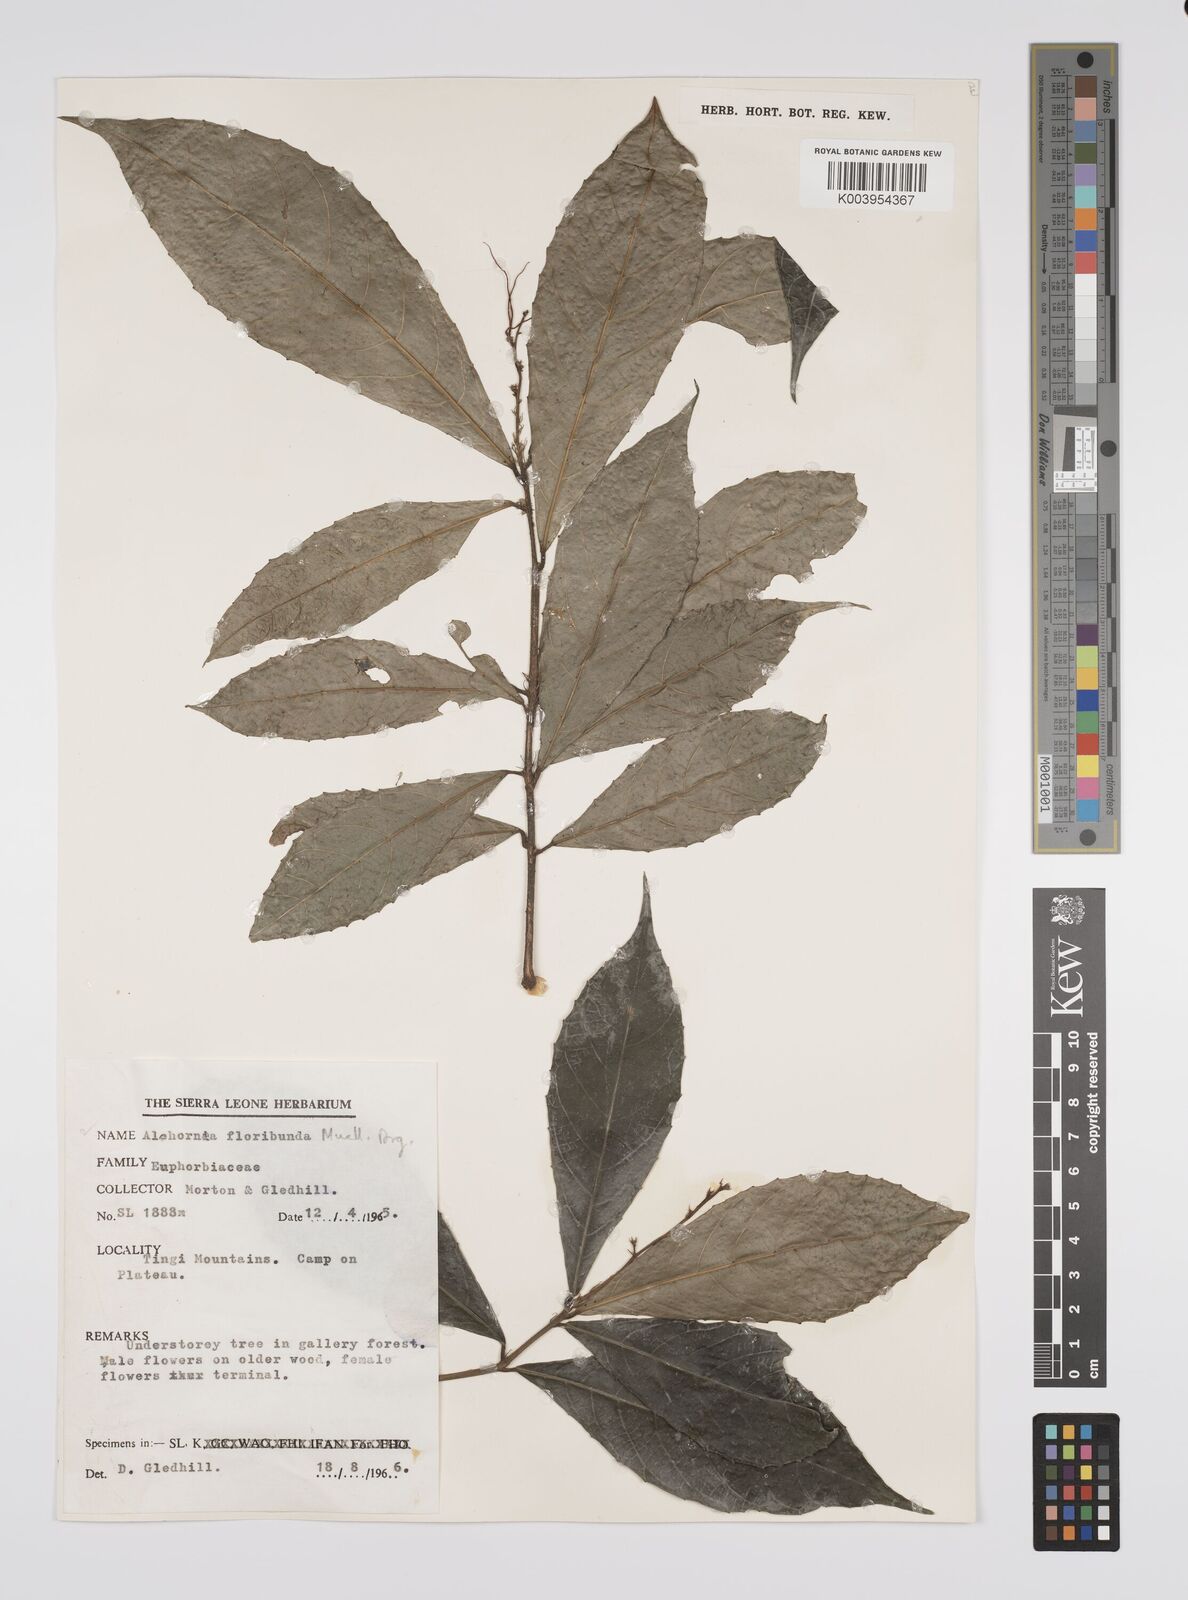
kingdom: Plantae
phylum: Tracheophyta
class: Magnoliopsida
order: Malpighiales
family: Euphorbiaceae
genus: Alchornea
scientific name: Alchornea floribunda
